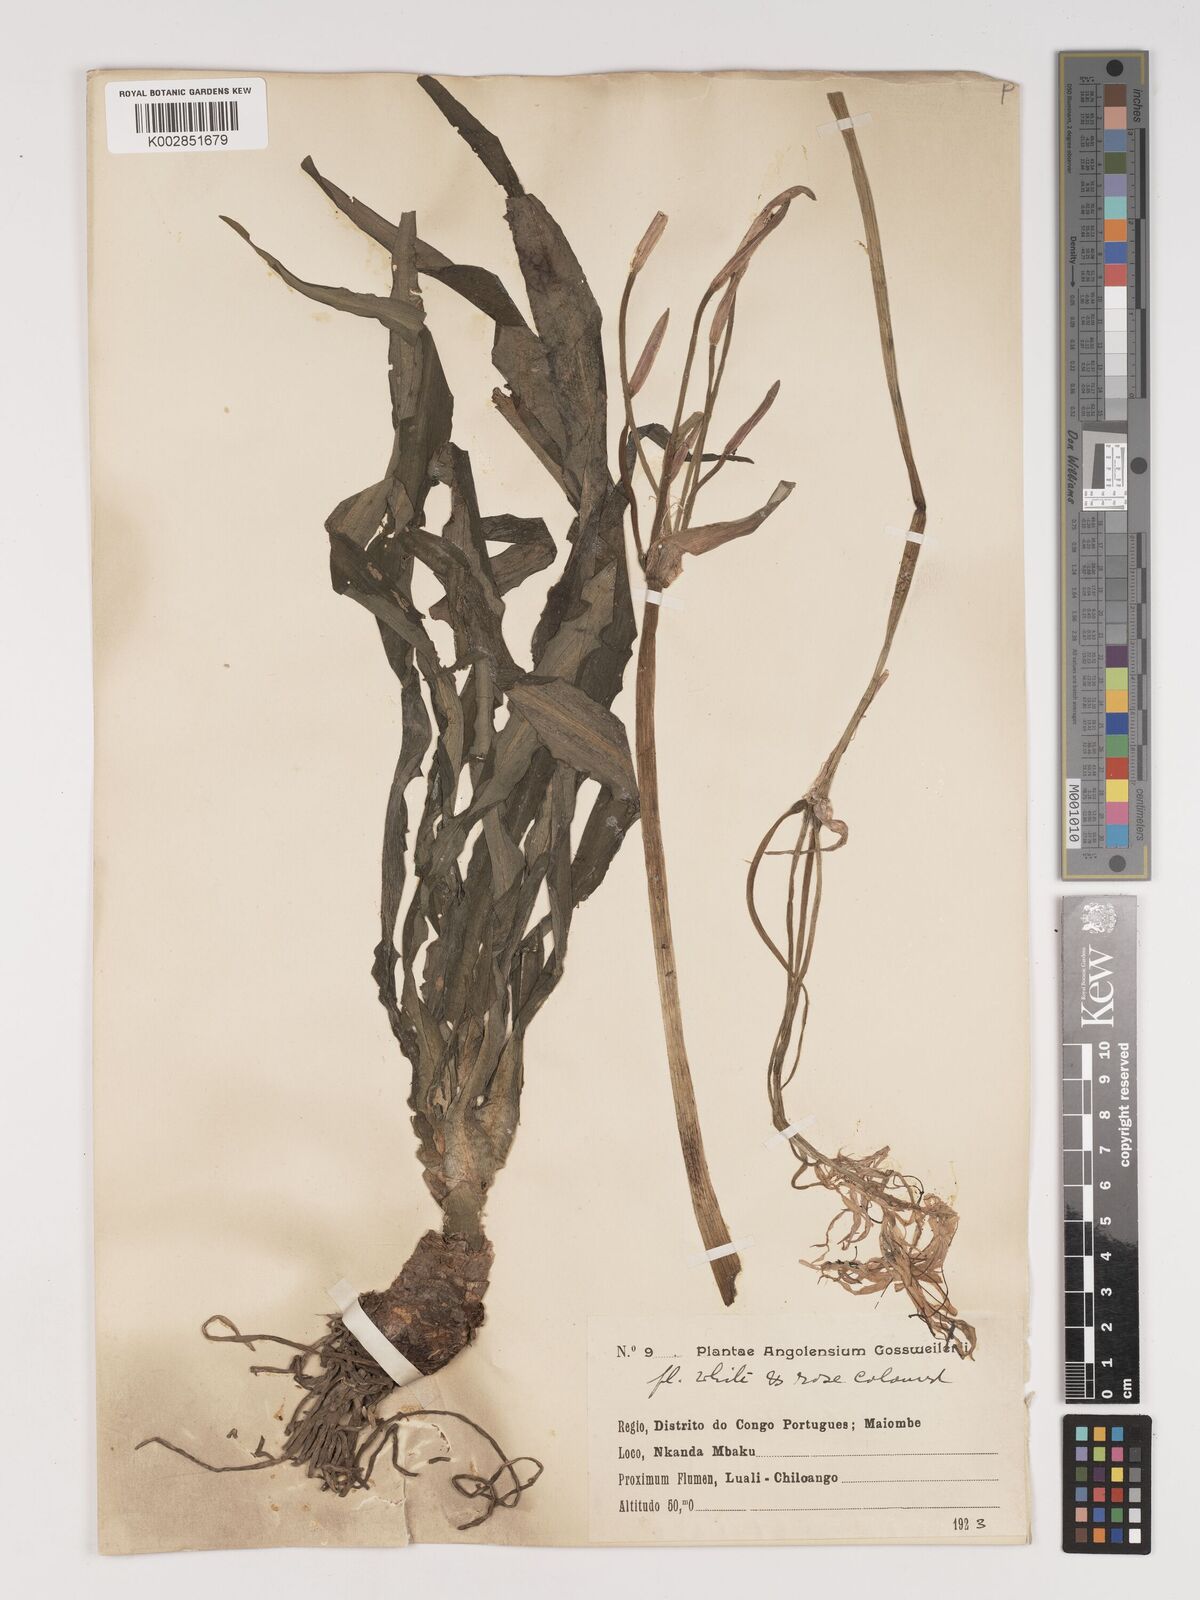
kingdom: Plantae
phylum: Tracheophyta
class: Liliopsida
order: Asparagales
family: Amaryllidaceae
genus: Crinum
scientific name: Crinum
